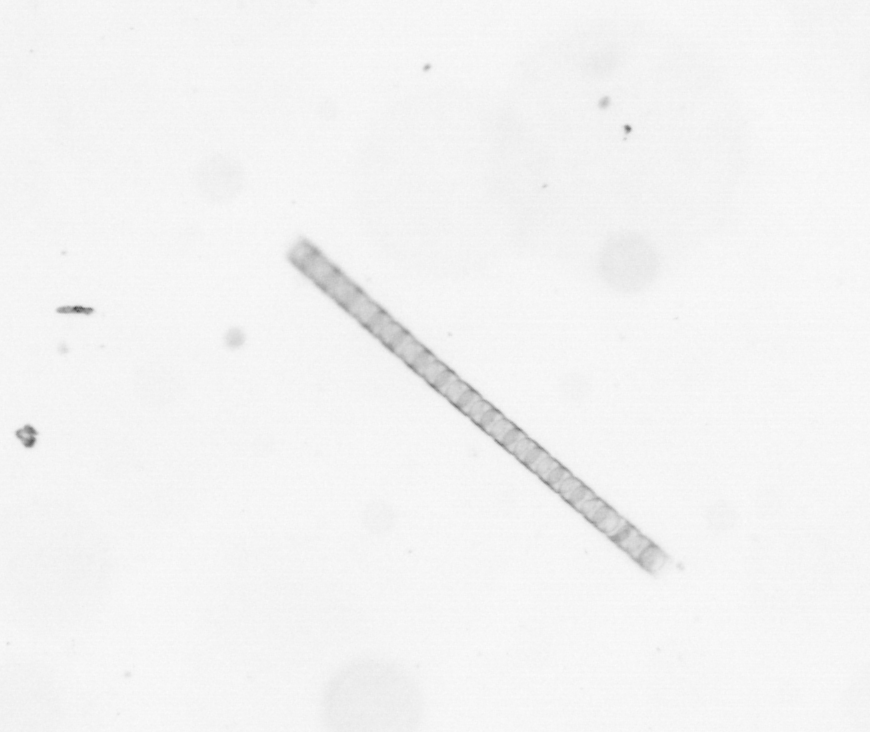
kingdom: Chromista
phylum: Ochrophyta
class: Bacillariophyceae
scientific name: Bacillariophyceae
